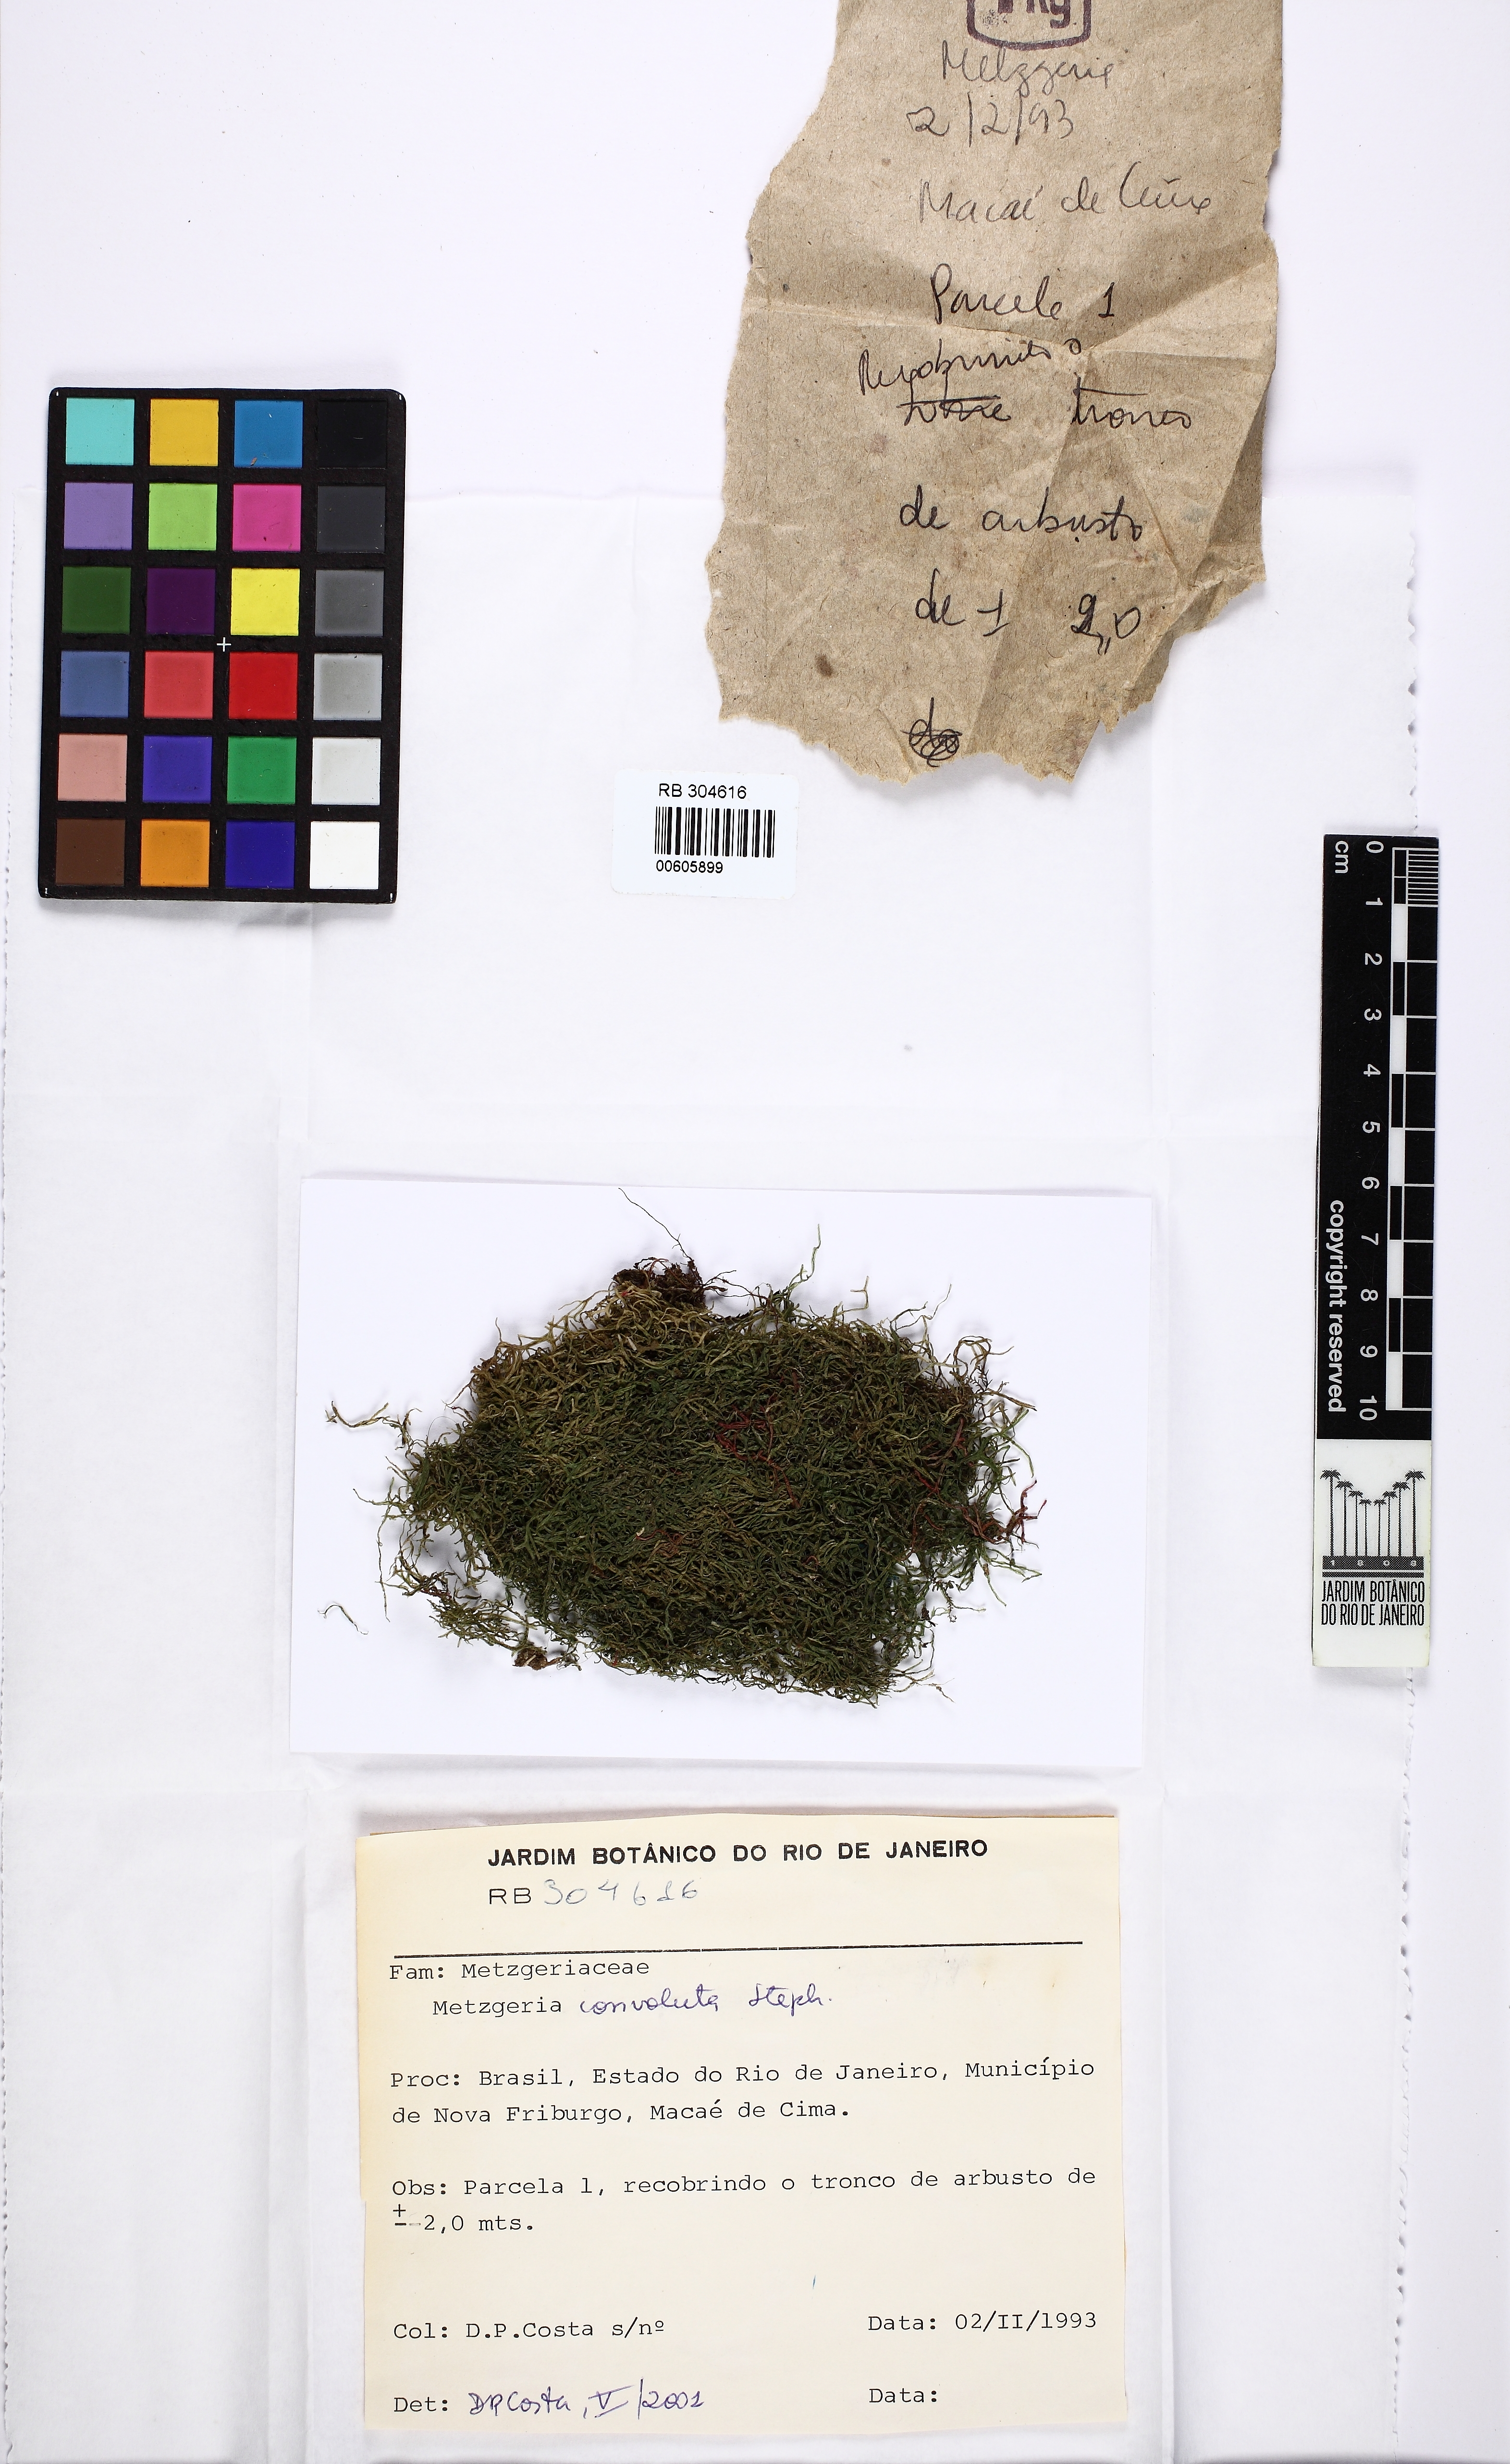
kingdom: Plantae
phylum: Marchantiophyta
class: Jungermanniopsida
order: Metzgeriales
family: Metzgeriaceae
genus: Metzgeria
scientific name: Metzgeria convoluta
